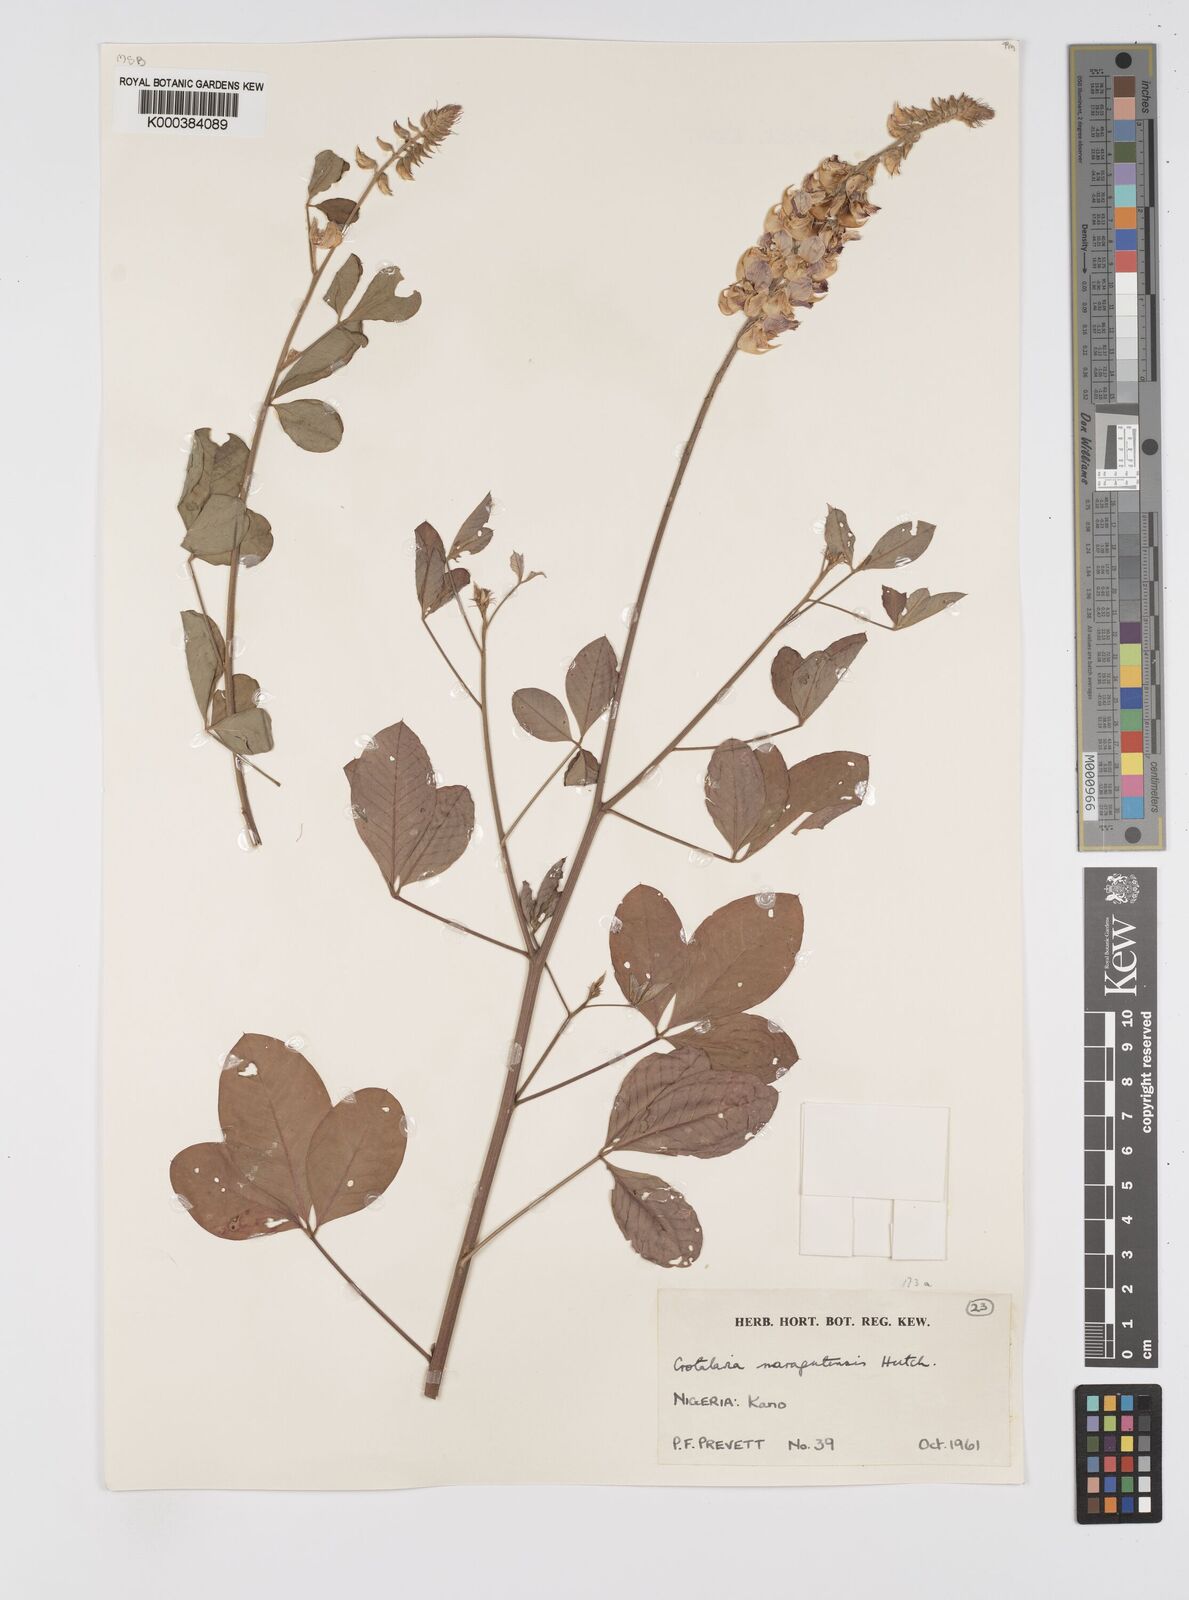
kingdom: Plantae
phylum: Tracheophyta
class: Magnoliopsida
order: Fabales
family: Fabaceae
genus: Crotalaria
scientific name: Crotalaria naragutensis
